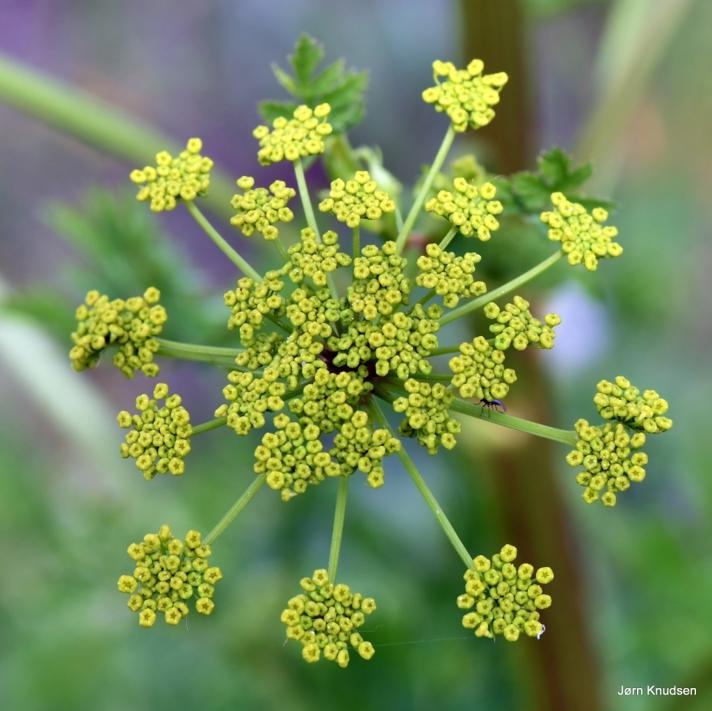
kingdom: Plantae
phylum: Tracheophyta
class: Magnoliopsida
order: Apiales
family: Apiaceae
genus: Pastinaca
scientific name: Pastinaca sativa
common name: Pastinak
